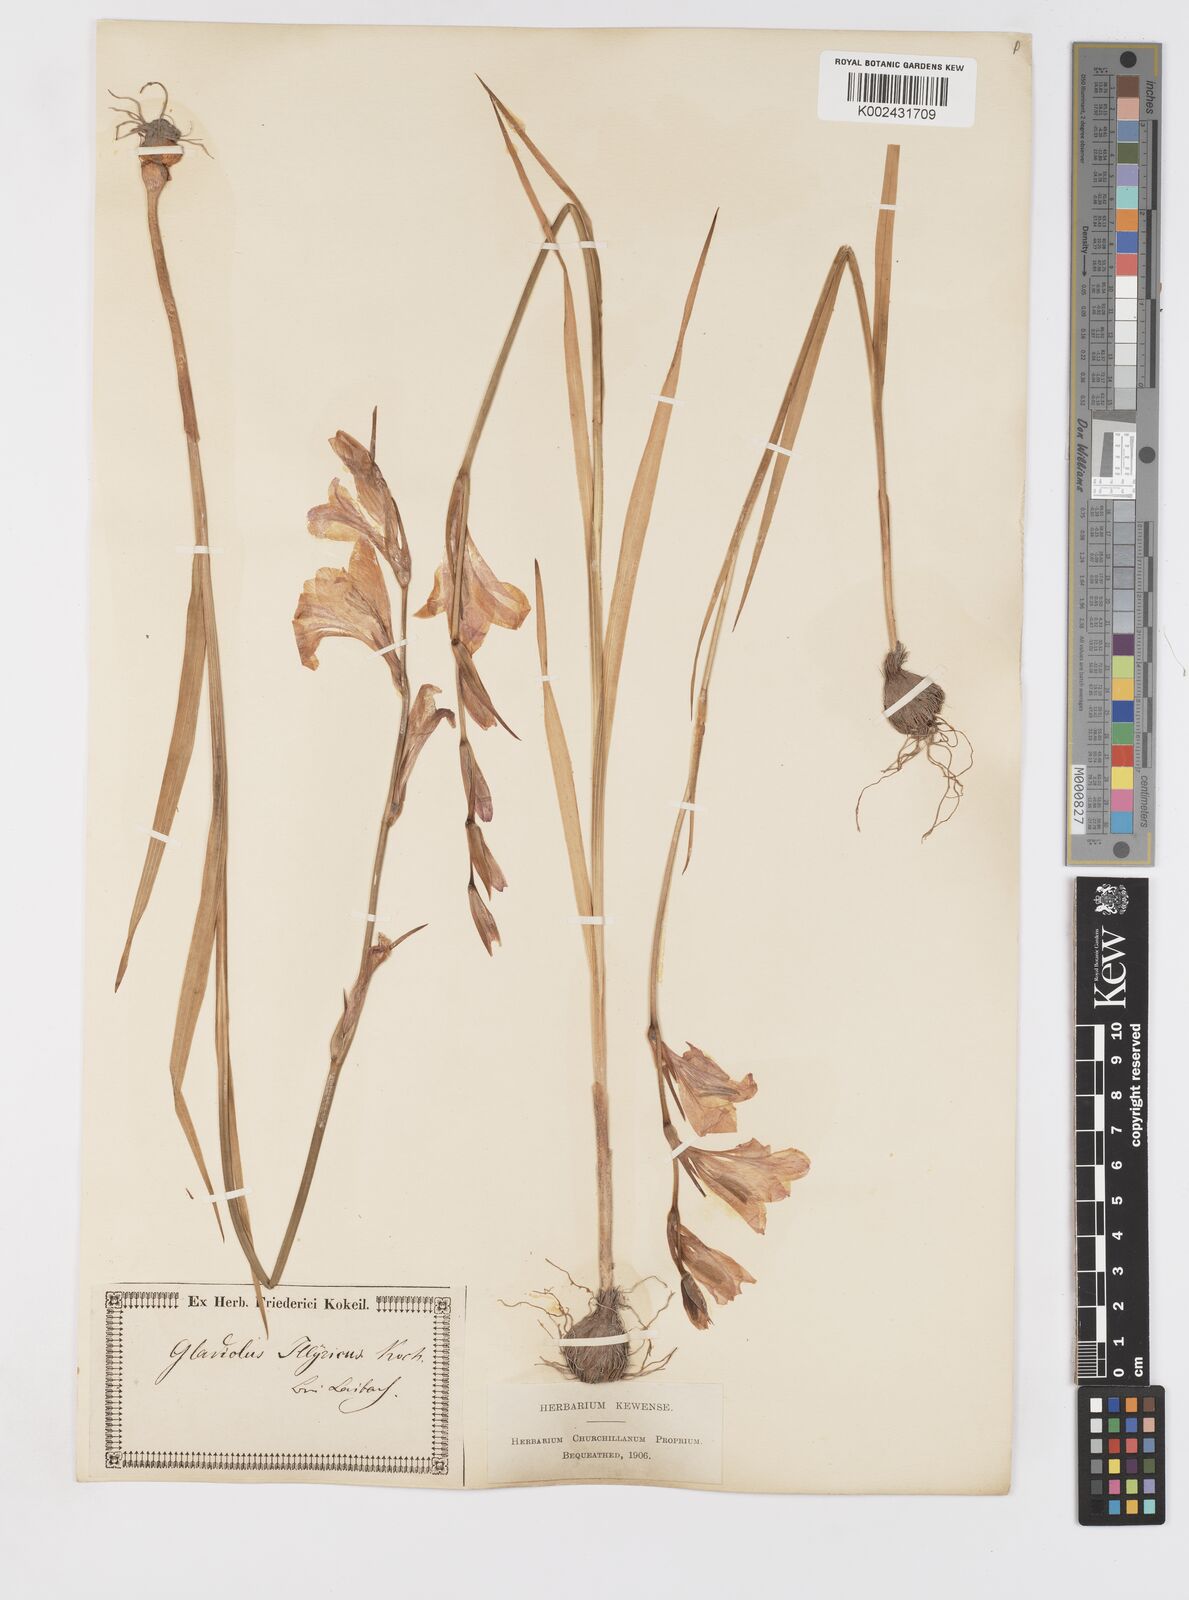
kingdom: Plantae
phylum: Tracheophyta
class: Liliopsida
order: Asparagales
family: Iridaceae
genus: Gladiolus
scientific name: Gladiolus illyricus
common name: Wild gladiolus
